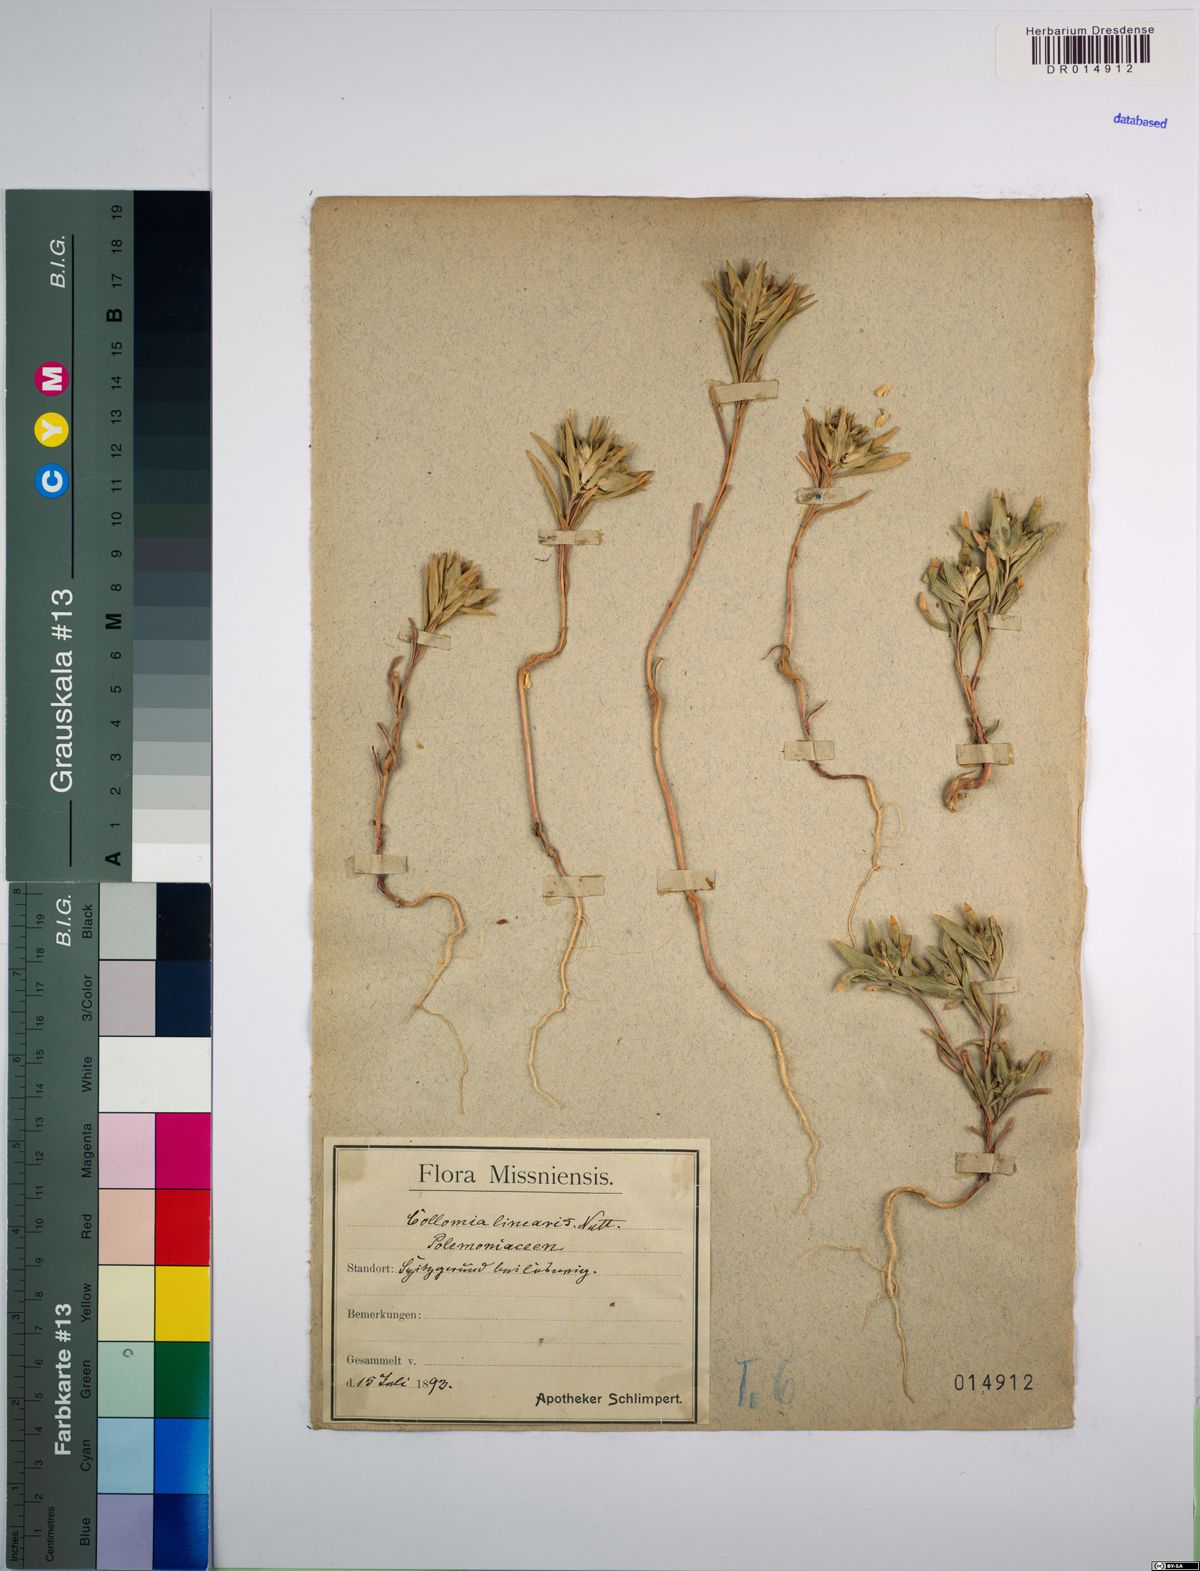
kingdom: Plantae
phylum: Tracheophyta
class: Magnoliopsida
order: Ericales
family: Polemoniaceae
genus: Collomia
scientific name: Collomia linearis
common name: Tiny trumpet
